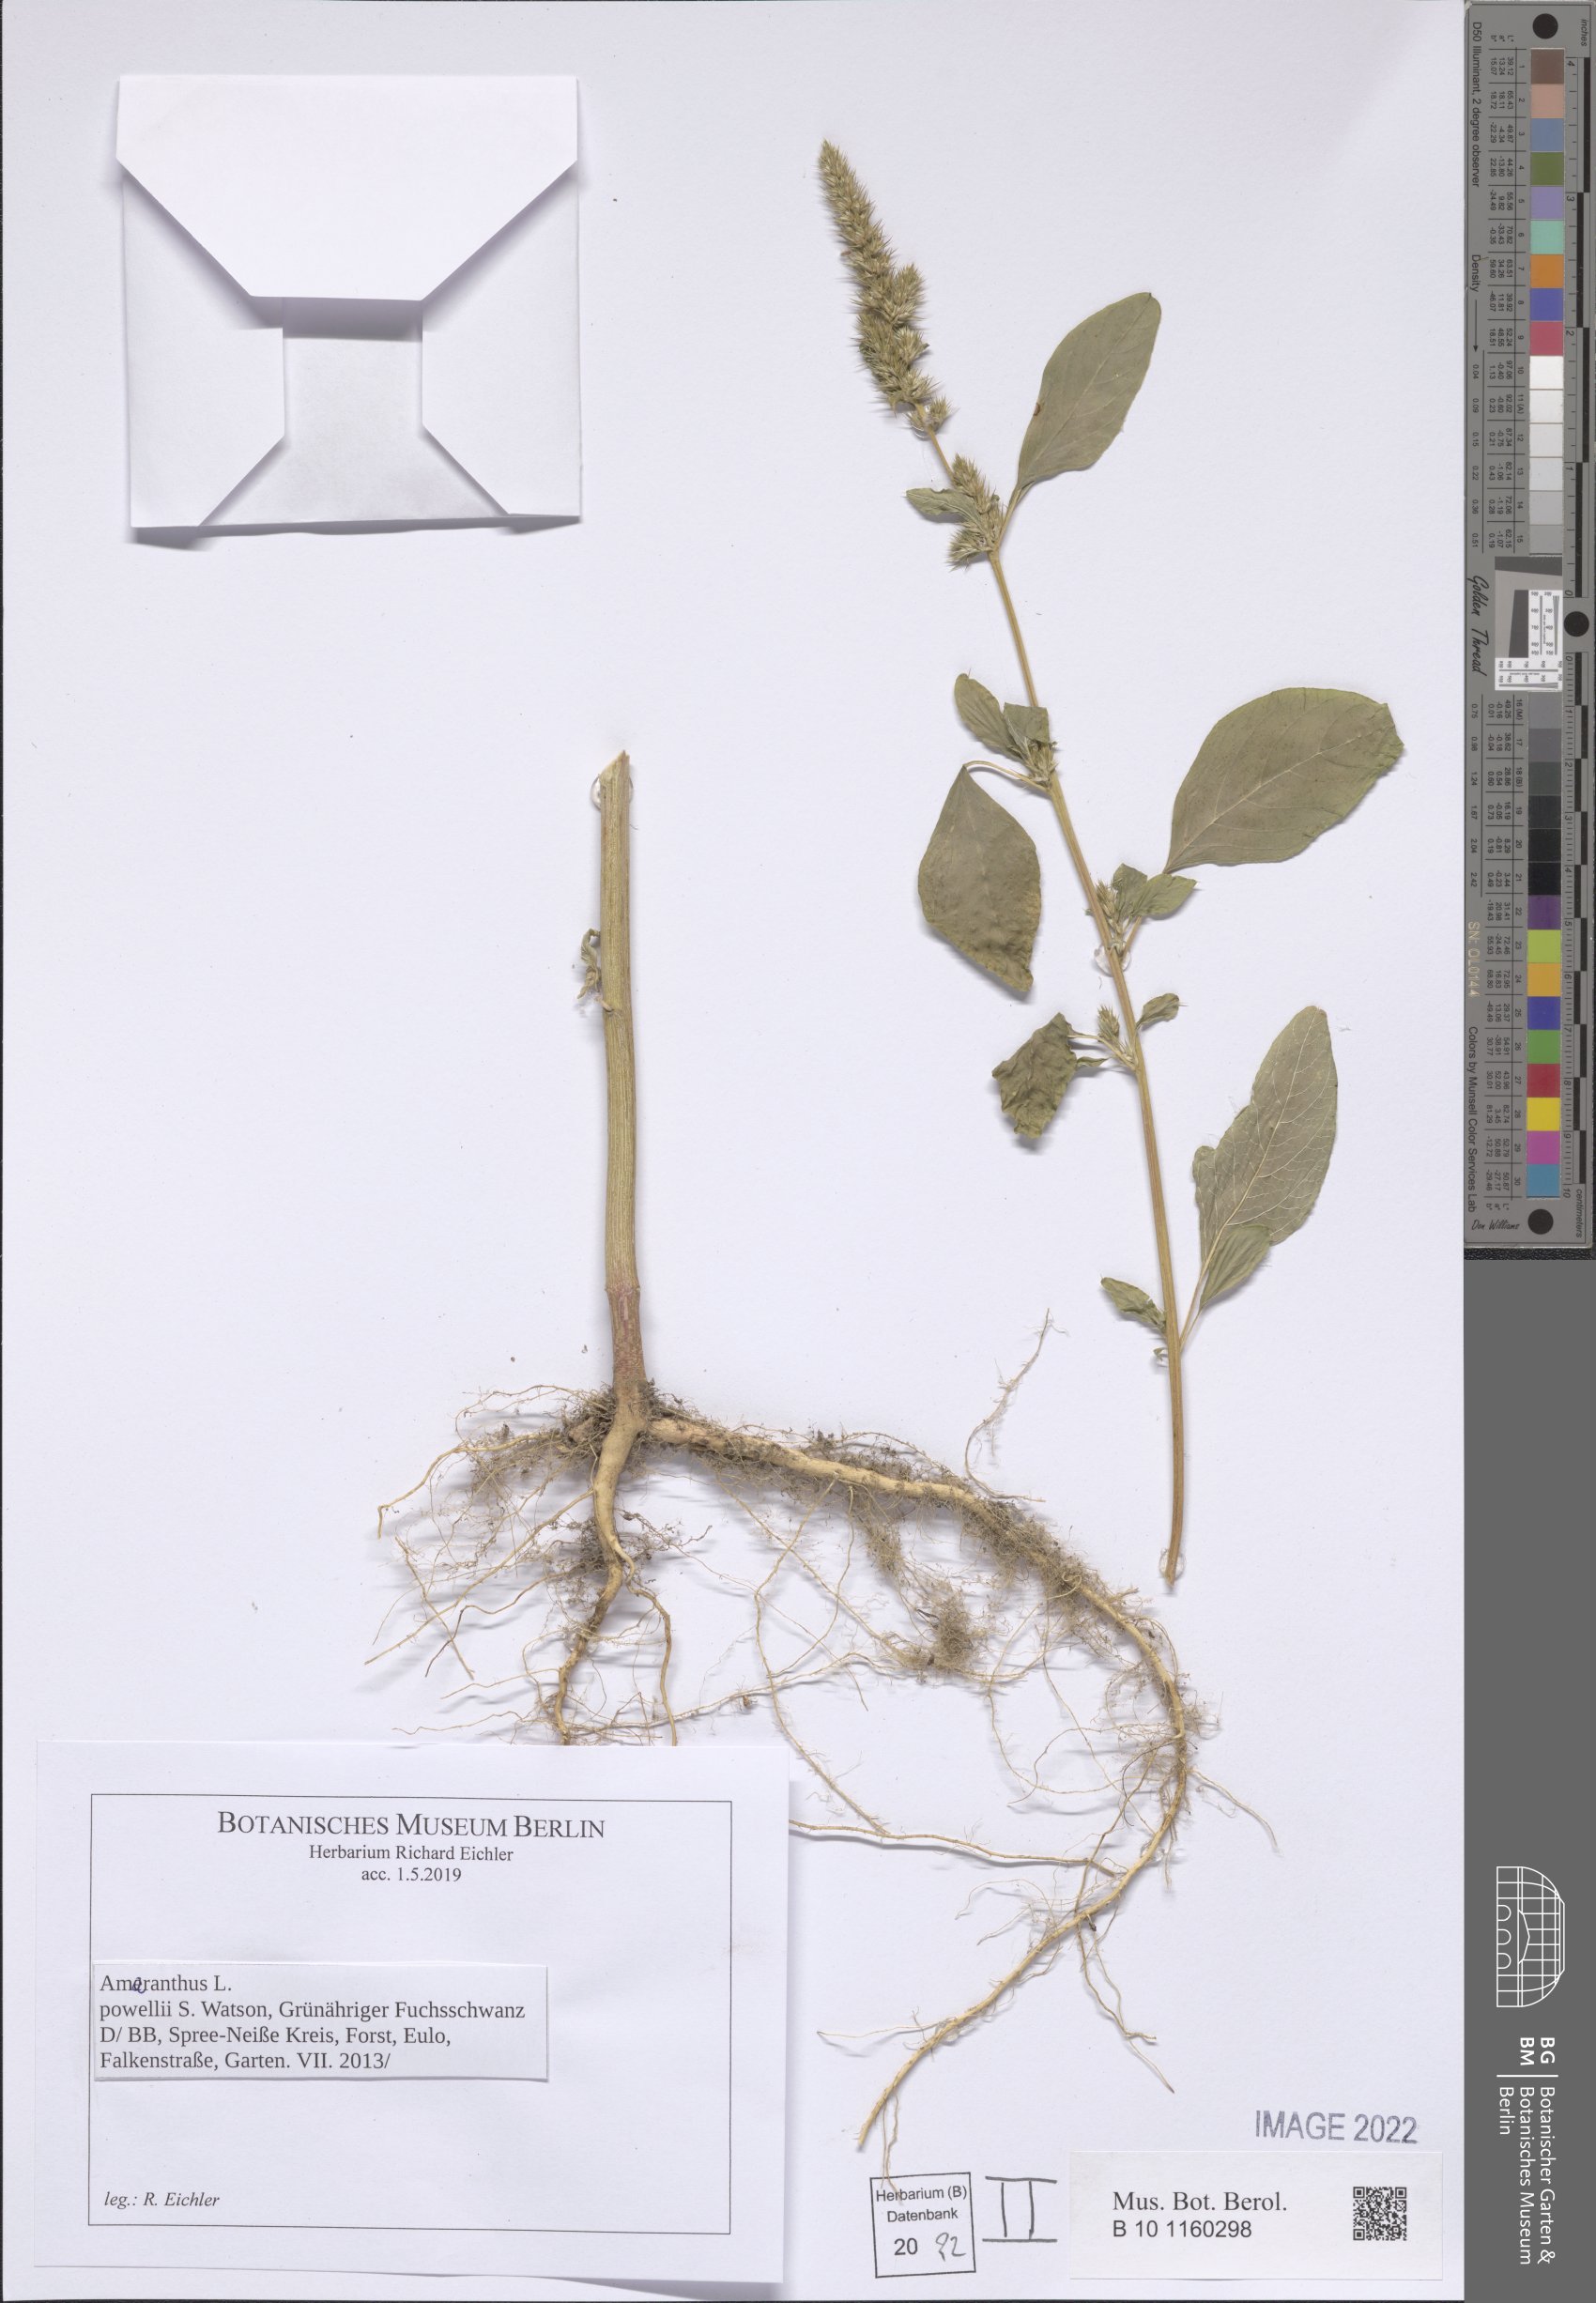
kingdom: Plantae
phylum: Tracheophyta
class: Magnoliopsida
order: Caryophyllales
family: Amaranthaceae
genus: Amaranthus
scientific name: Amaranthus powellii
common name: Powell's amaranth
